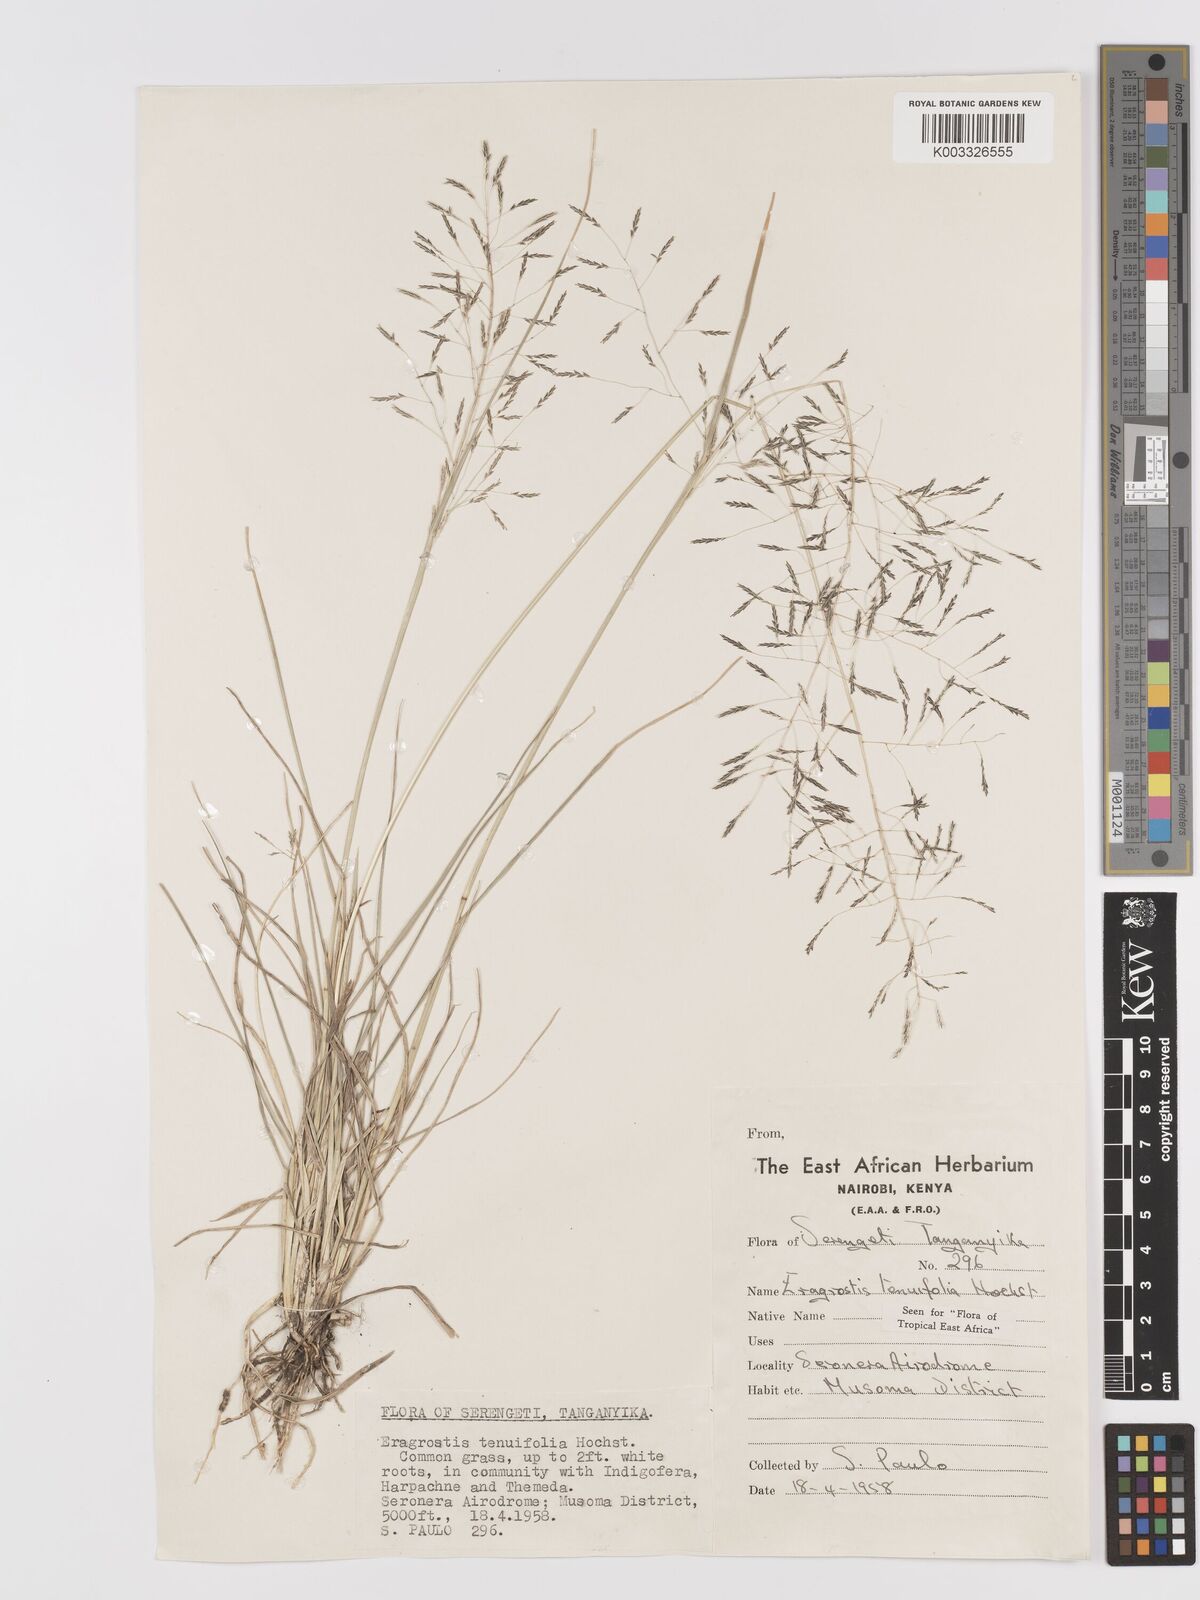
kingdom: Plantae
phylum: Tracheophyta
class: Liliopsida
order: Poales
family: Poaceae
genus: Eragrostis
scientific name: Eragrostis tenuifolia
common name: Elastic grass
